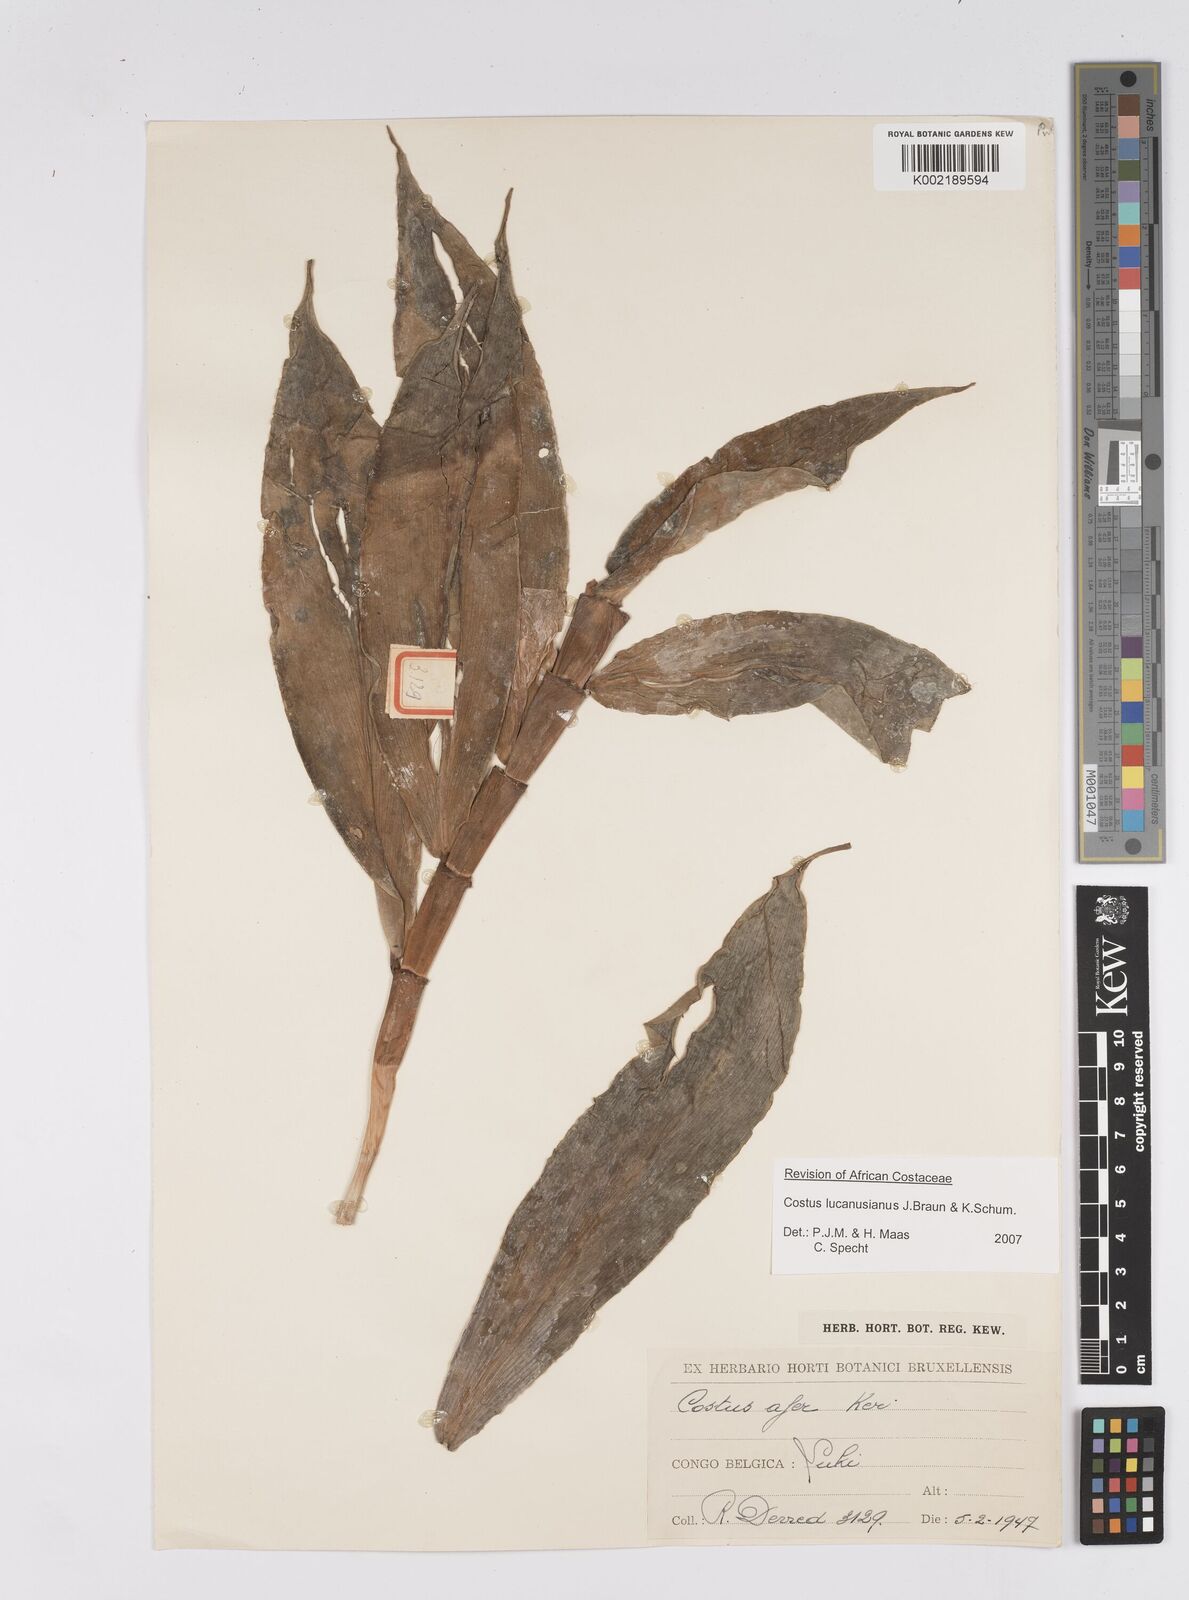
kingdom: Plantae
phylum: Tracheophyta
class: Liliopsida
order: Zingiberales
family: Costaceae
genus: Costus
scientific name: Costus lucanusianus
